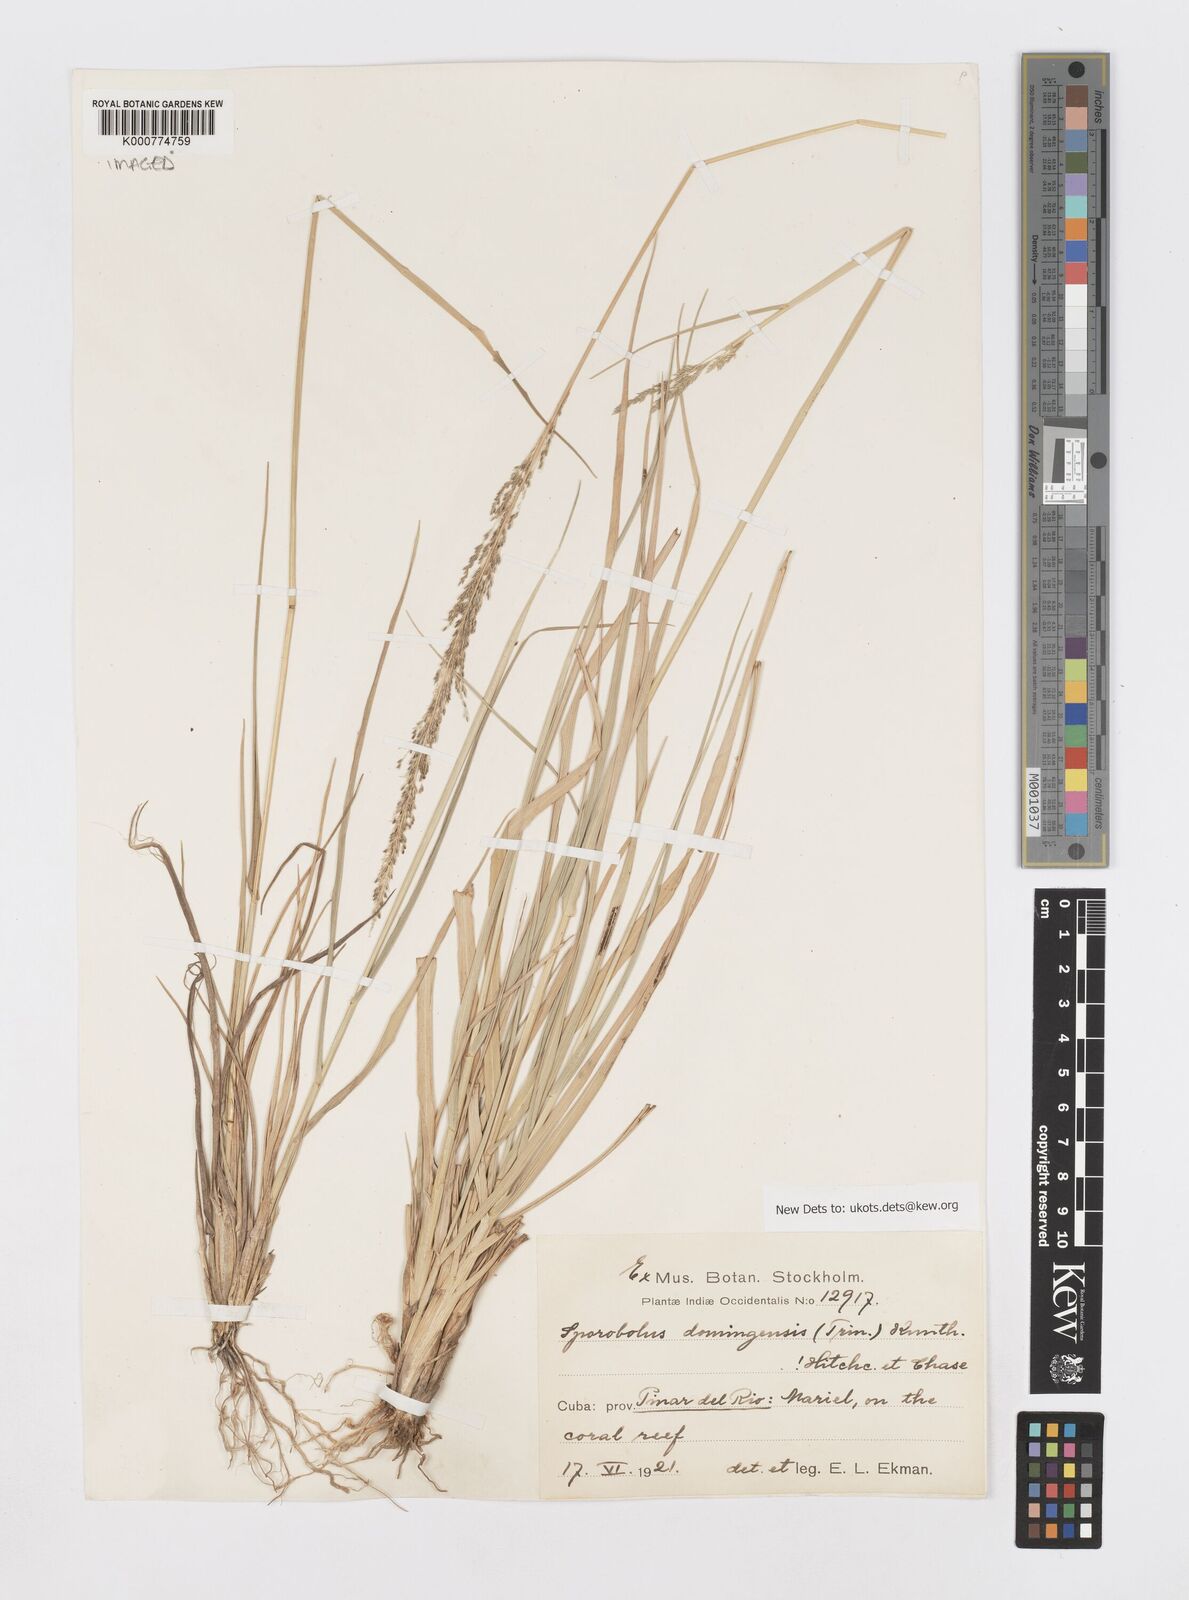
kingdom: Plantae
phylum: Tracheophyta
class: Liliopsida
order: Poales
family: Poaceae
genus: Sporobolus
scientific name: Sporobolus domingensis
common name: Coral dropseed
